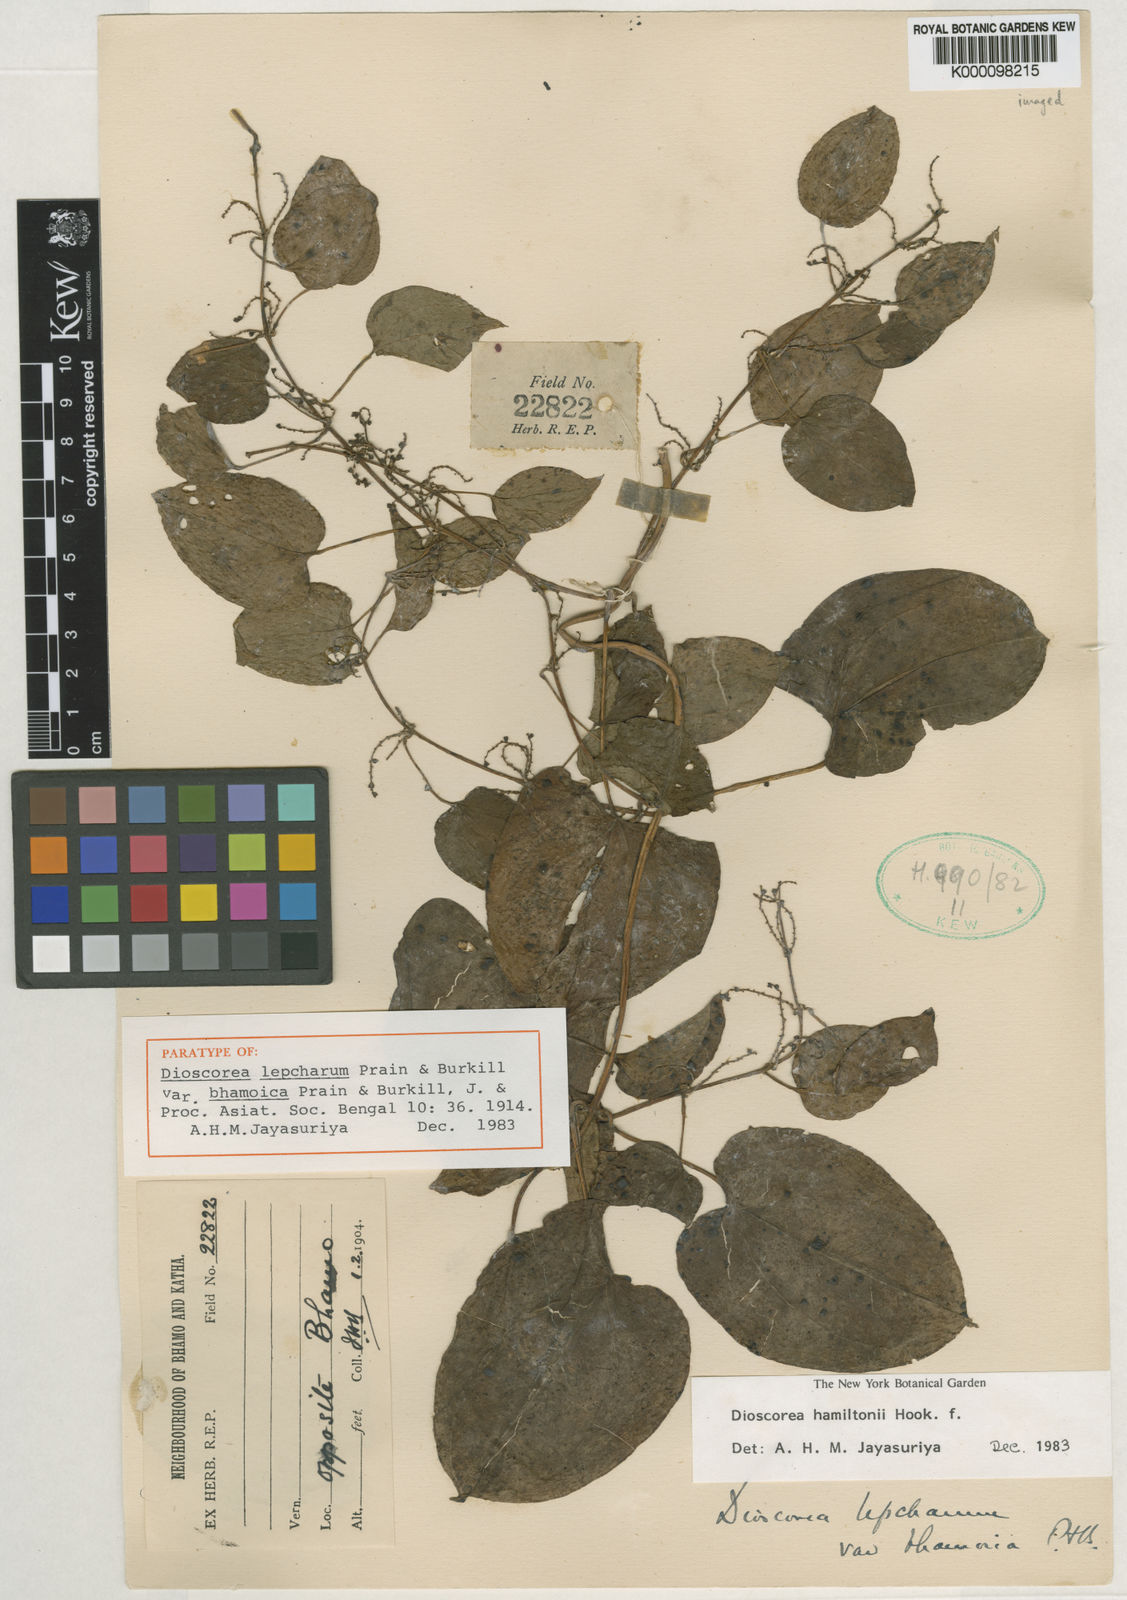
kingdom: Plantae
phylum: Tracheophyta
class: Liliopsida
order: Dioscoreales
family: Dioscoreaceae
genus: Dioscorea
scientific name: Dioscorea lepcharum
